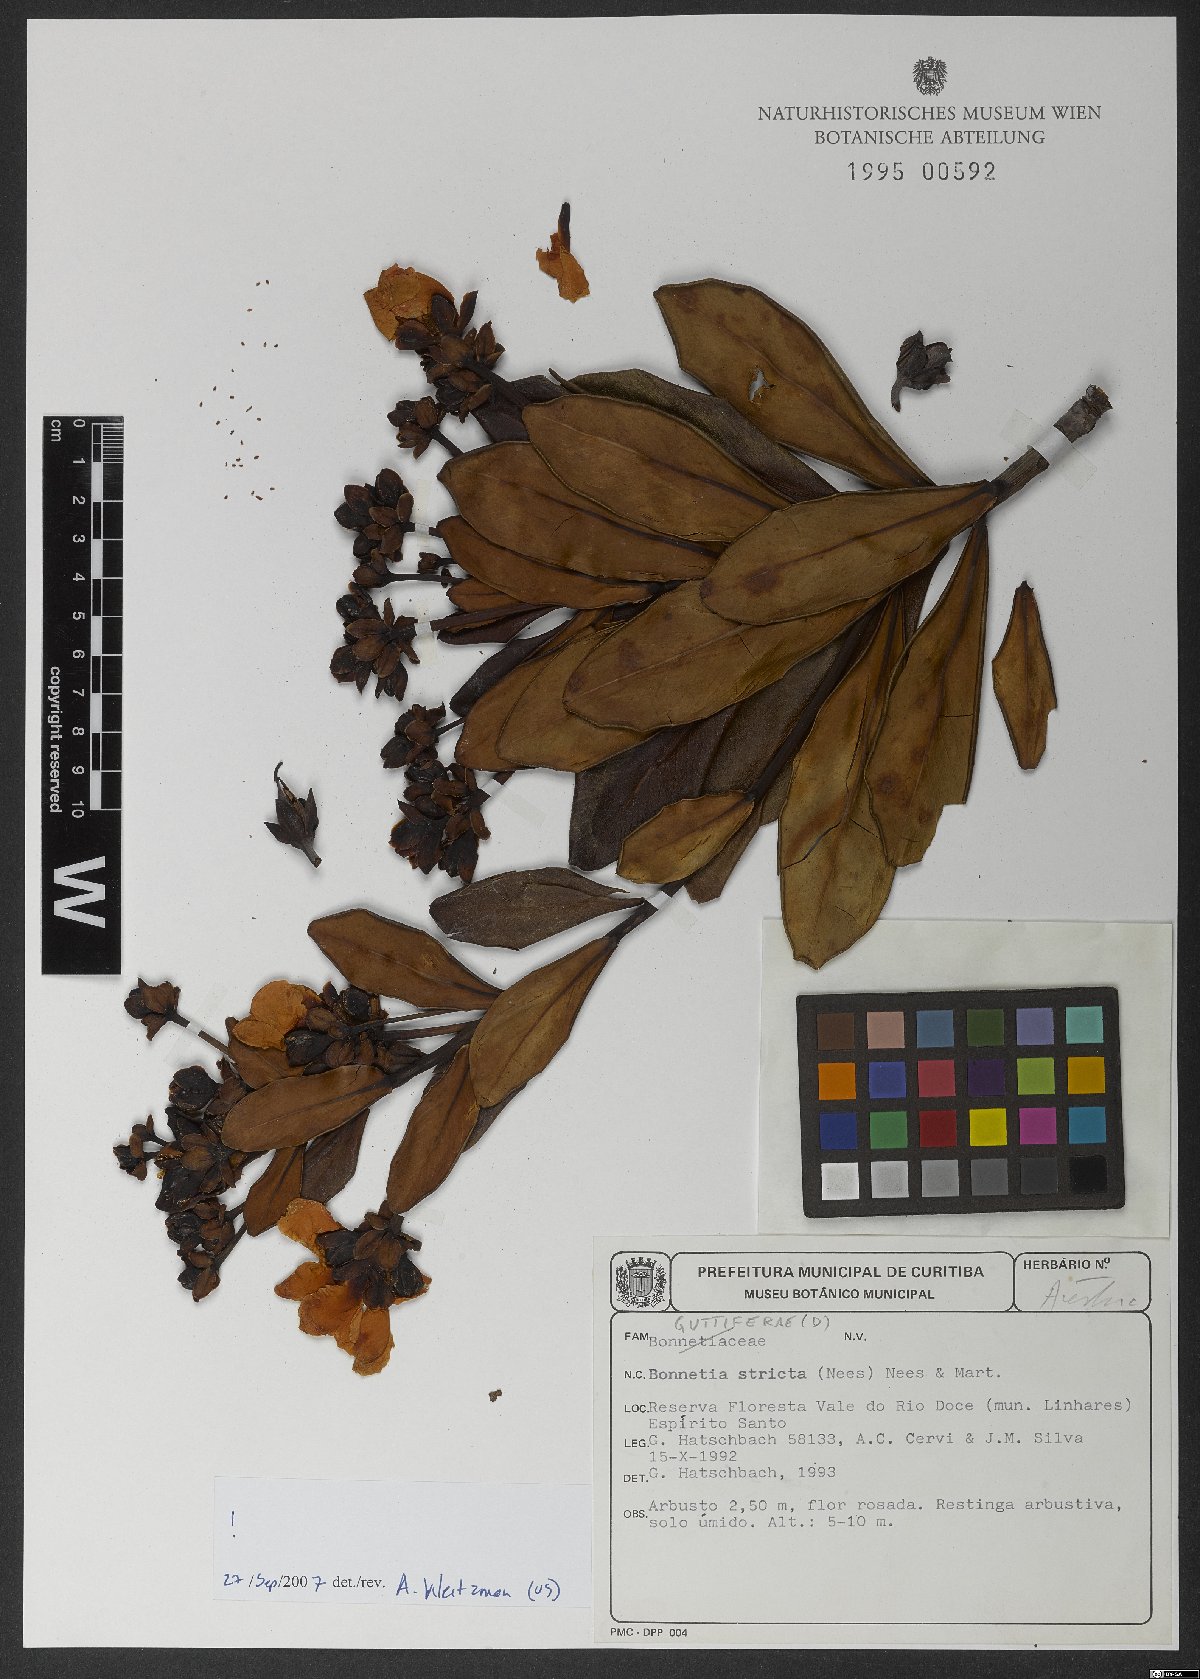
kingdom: Plantae
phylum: Tracheophyta
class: Magnoliopsida
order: Malpighiales
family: Bonnetiaceae
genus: Bonnetia
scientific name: Bonnetia stricta
